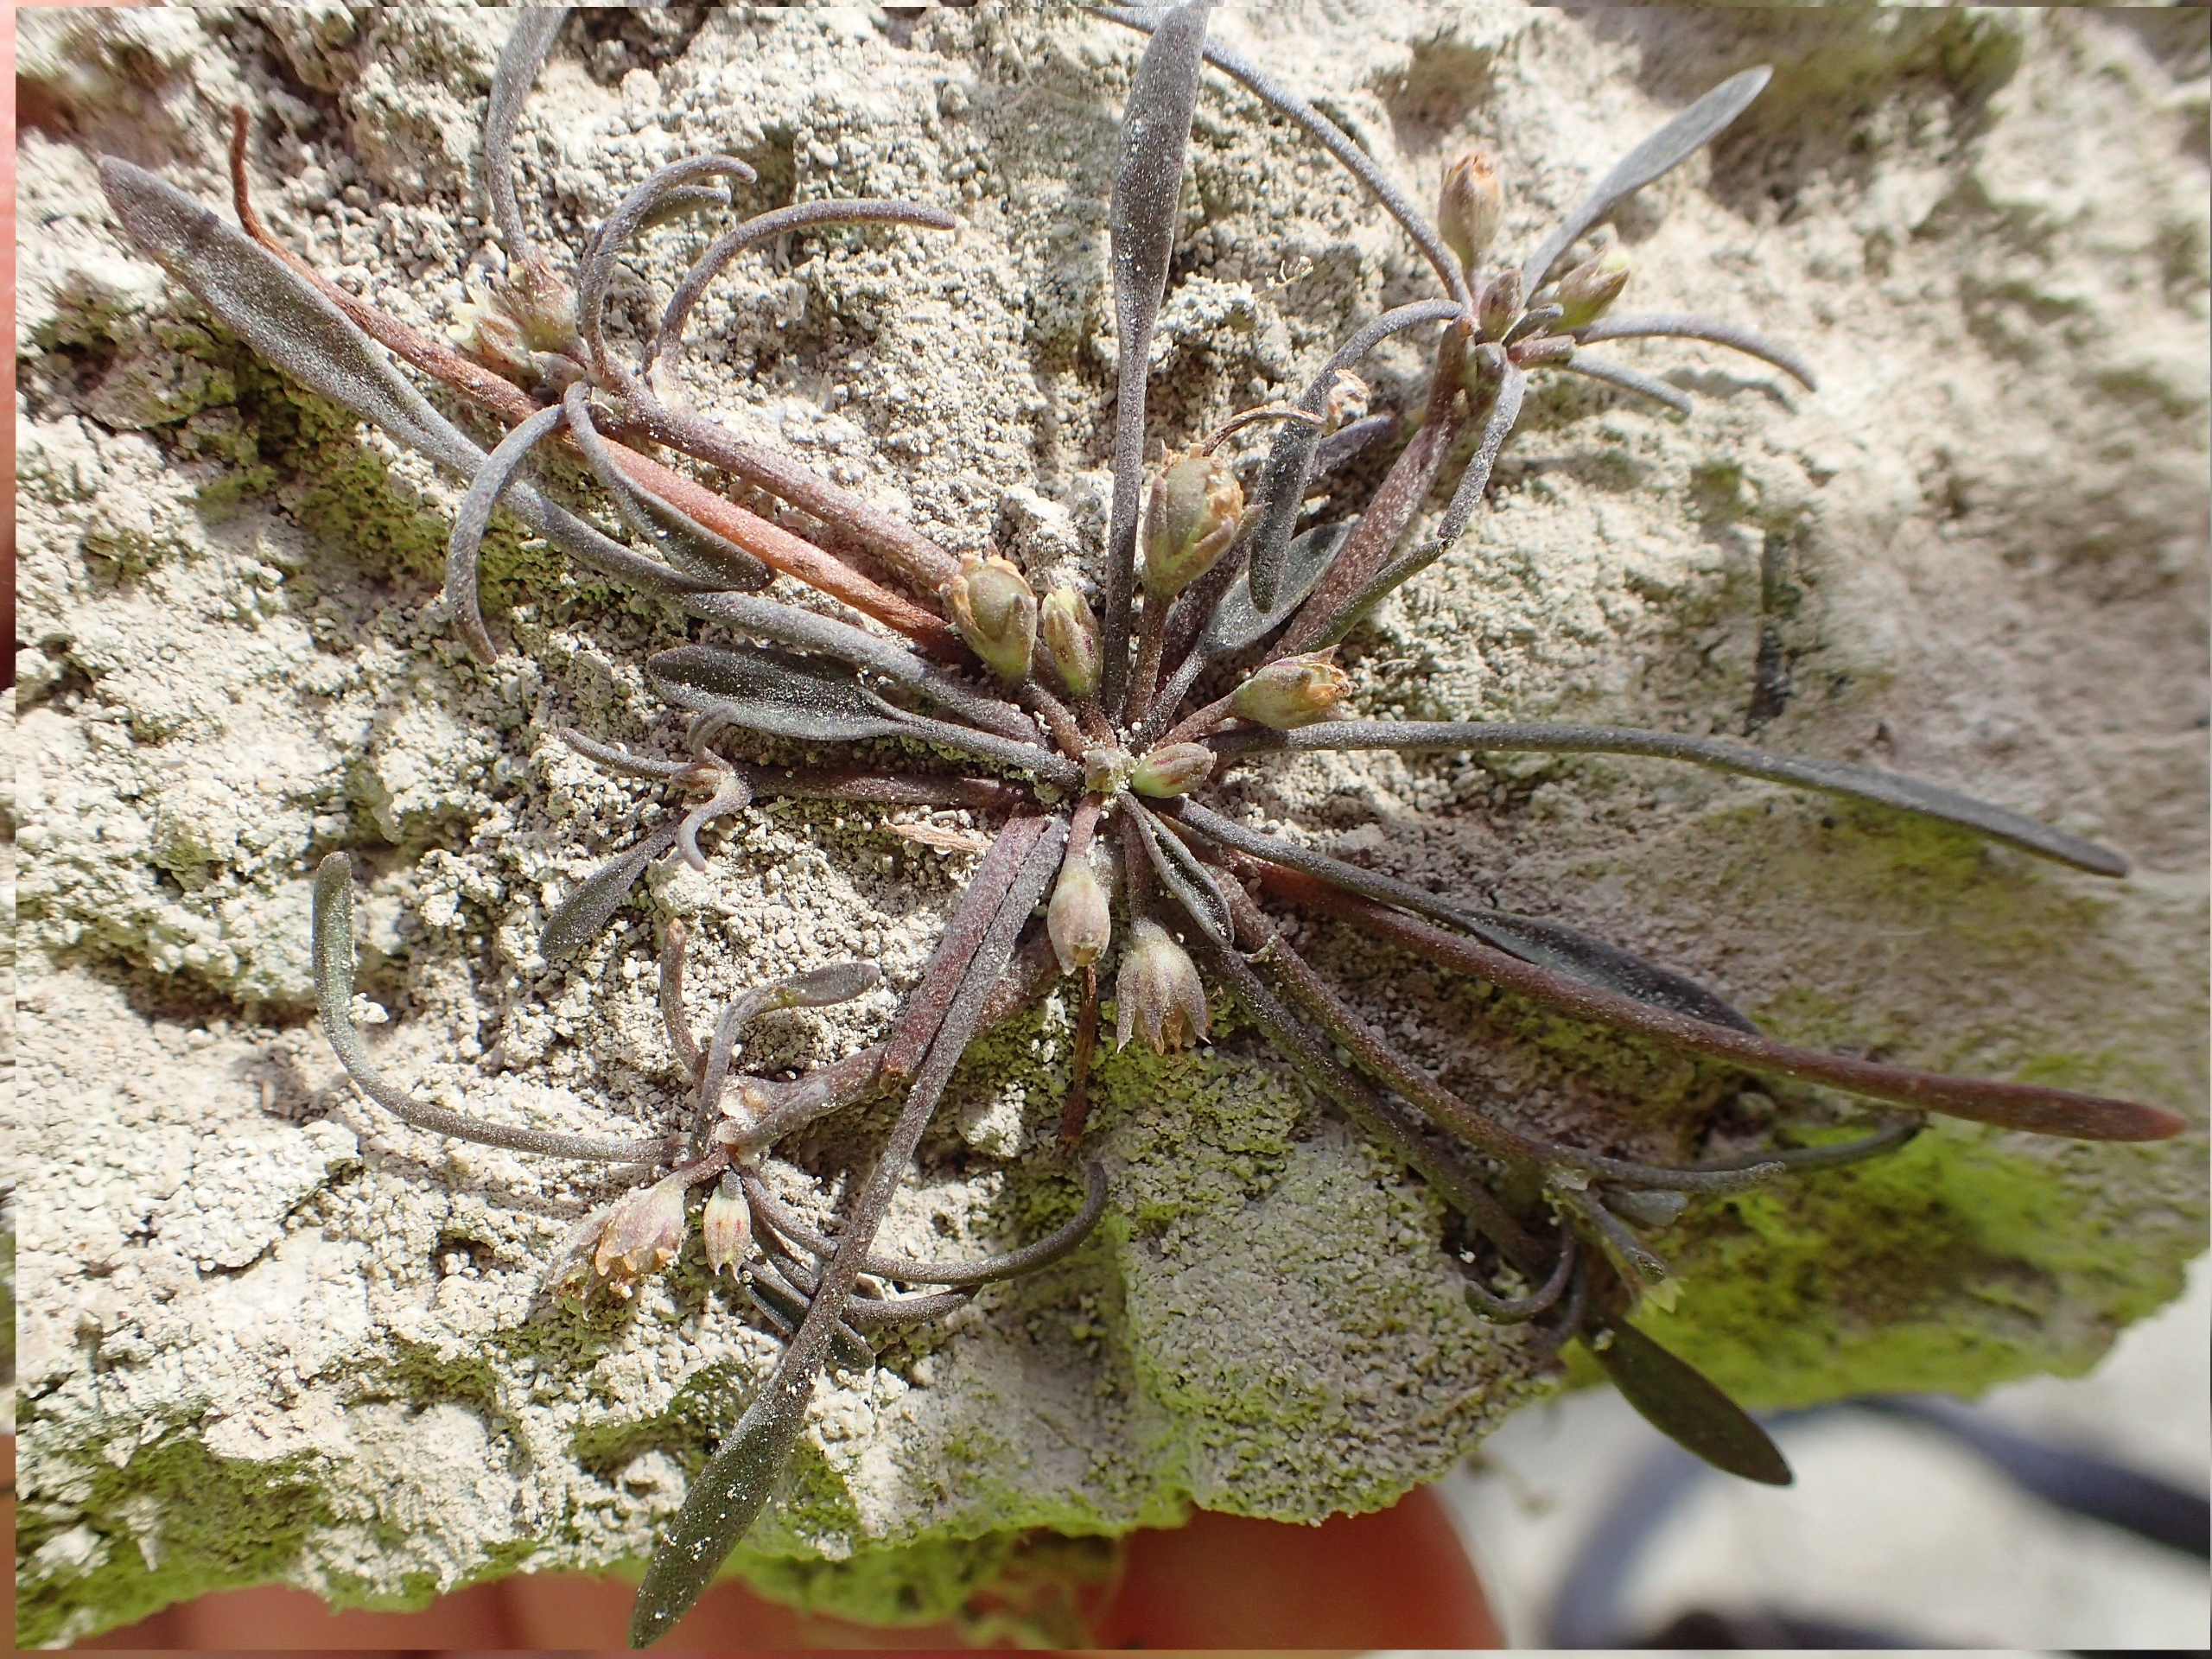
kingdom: Plantae
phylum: Tracheophyta
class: Magnoliopsida
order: Lamiales
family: Scrophulariaceae
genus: Limosella
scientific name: Limosella aquatica
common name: Dyndurt
